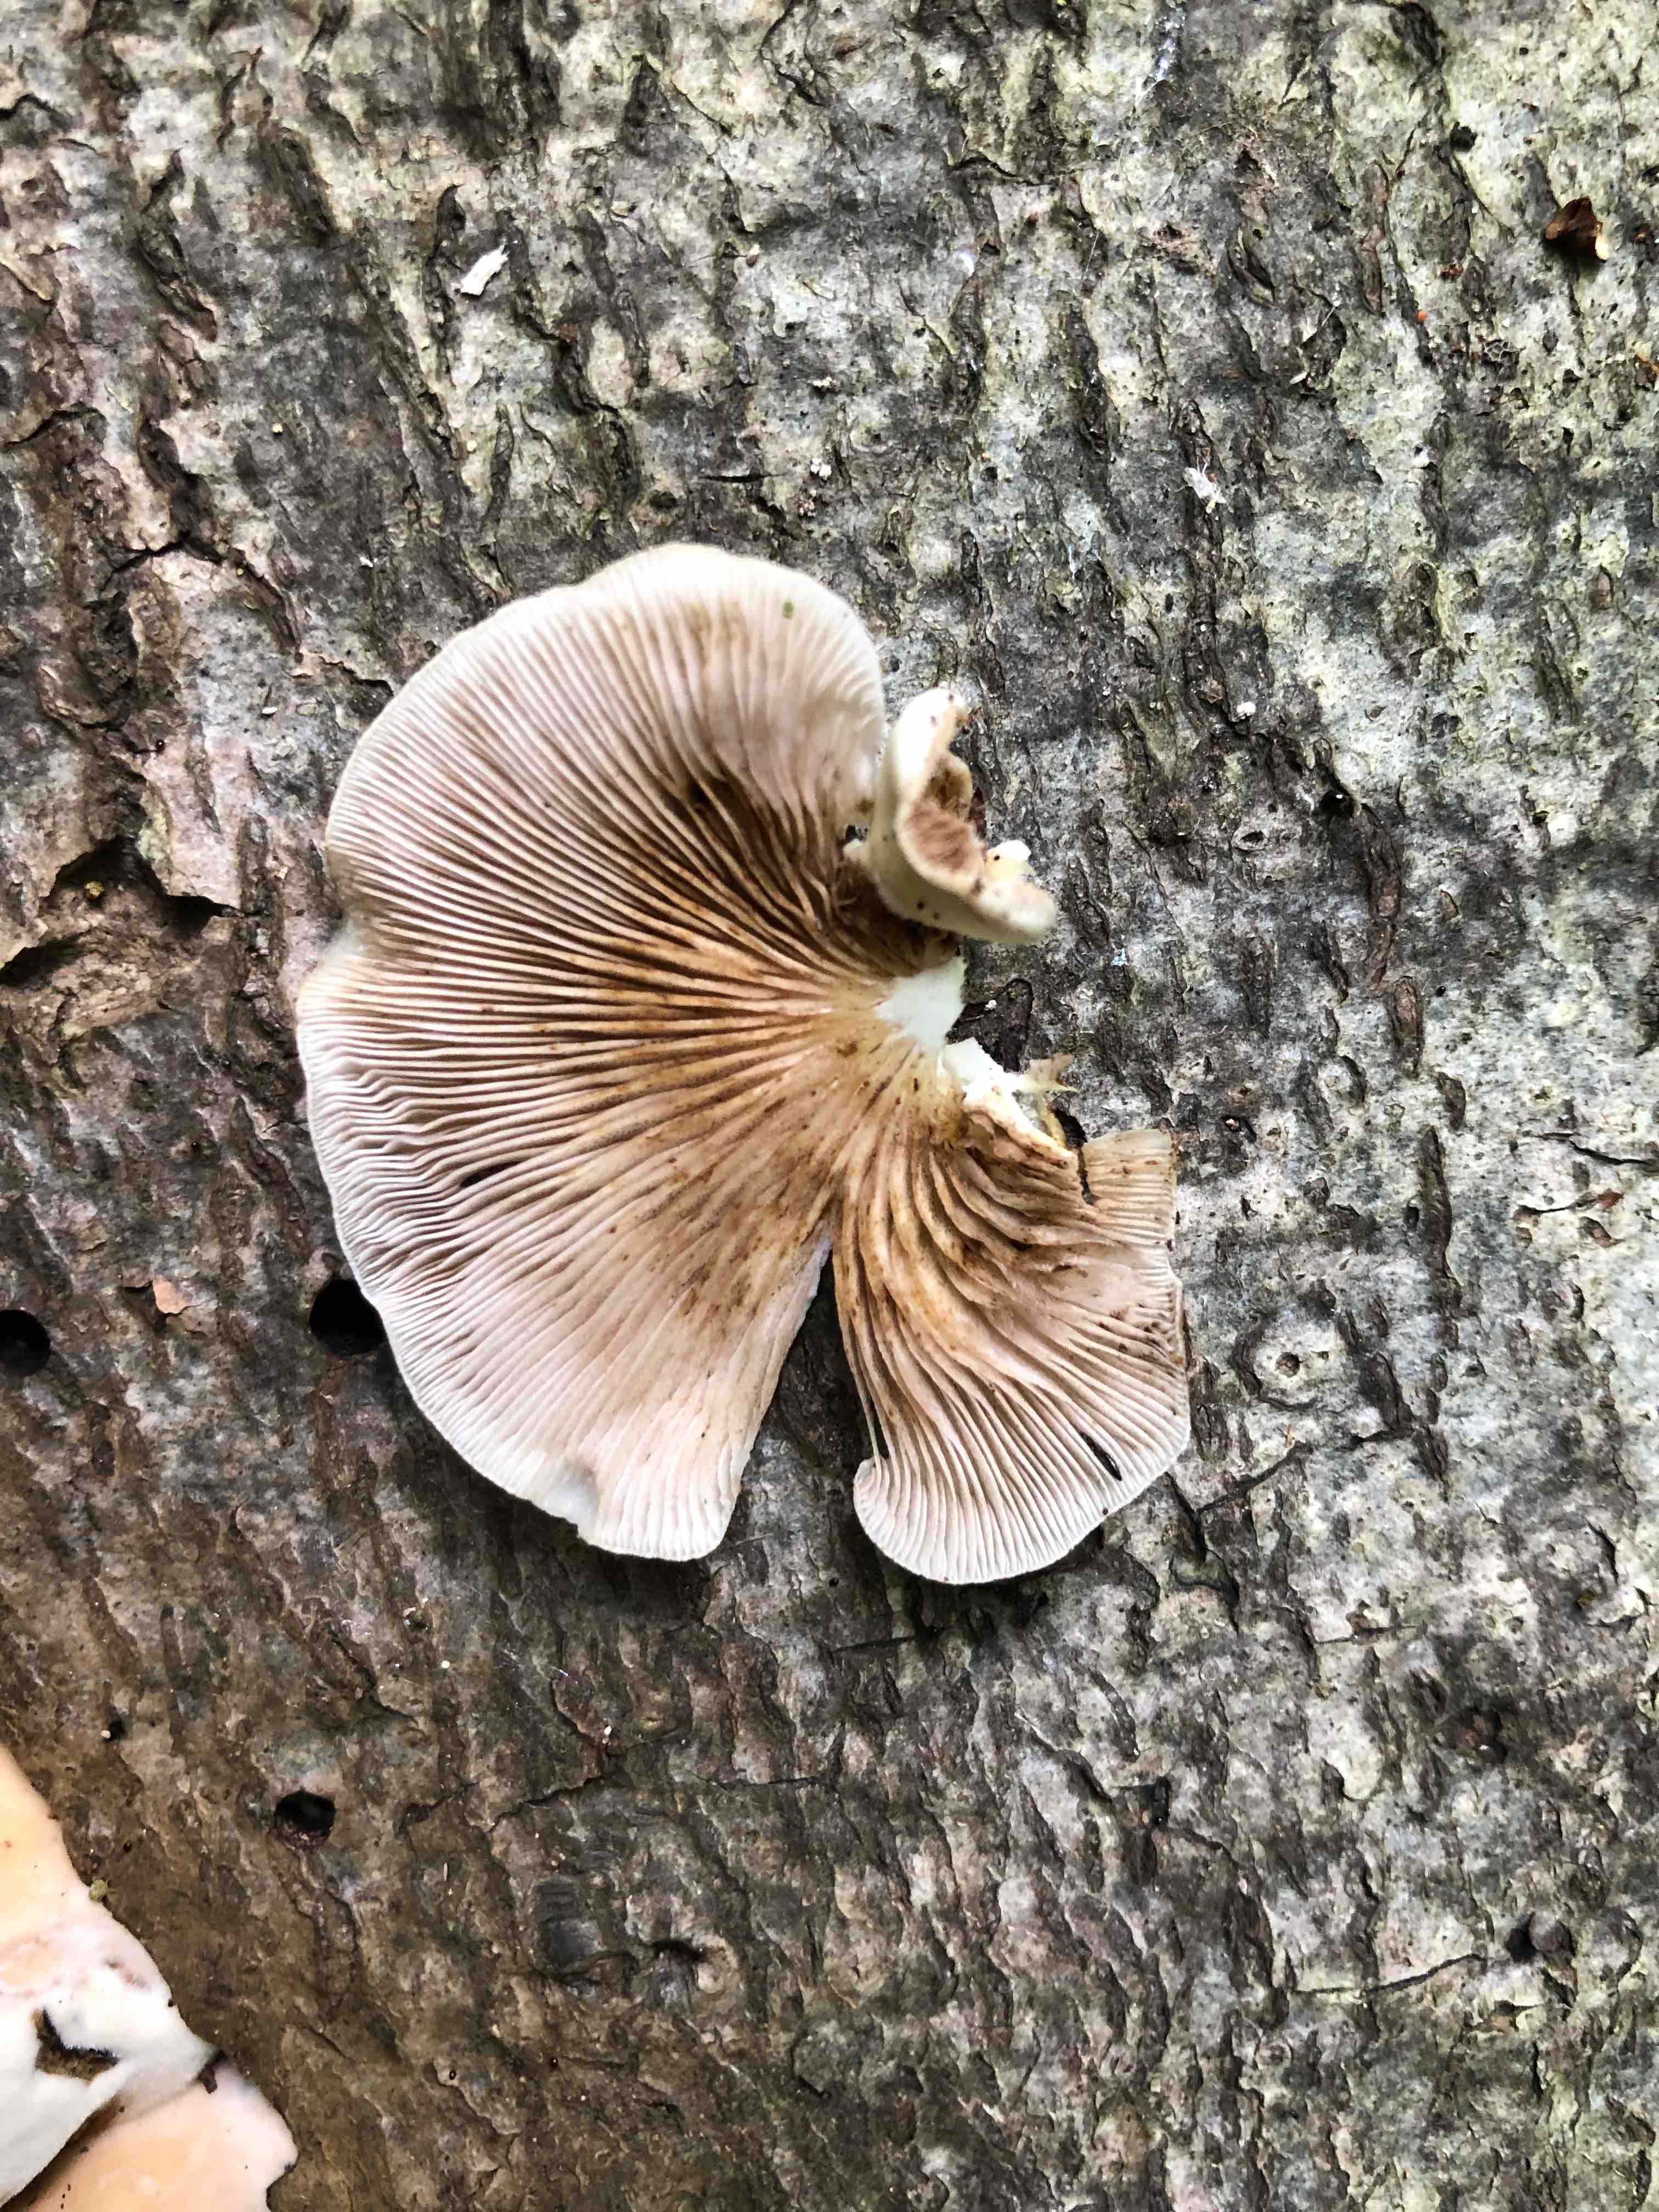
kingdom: Fungi
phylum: Basidiomycota
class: Agaricomycetes
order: Agaricales
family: Crepidotaceae
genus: Crepidotus
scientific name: Crepidotus mollis
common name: blød muslingesvamp
